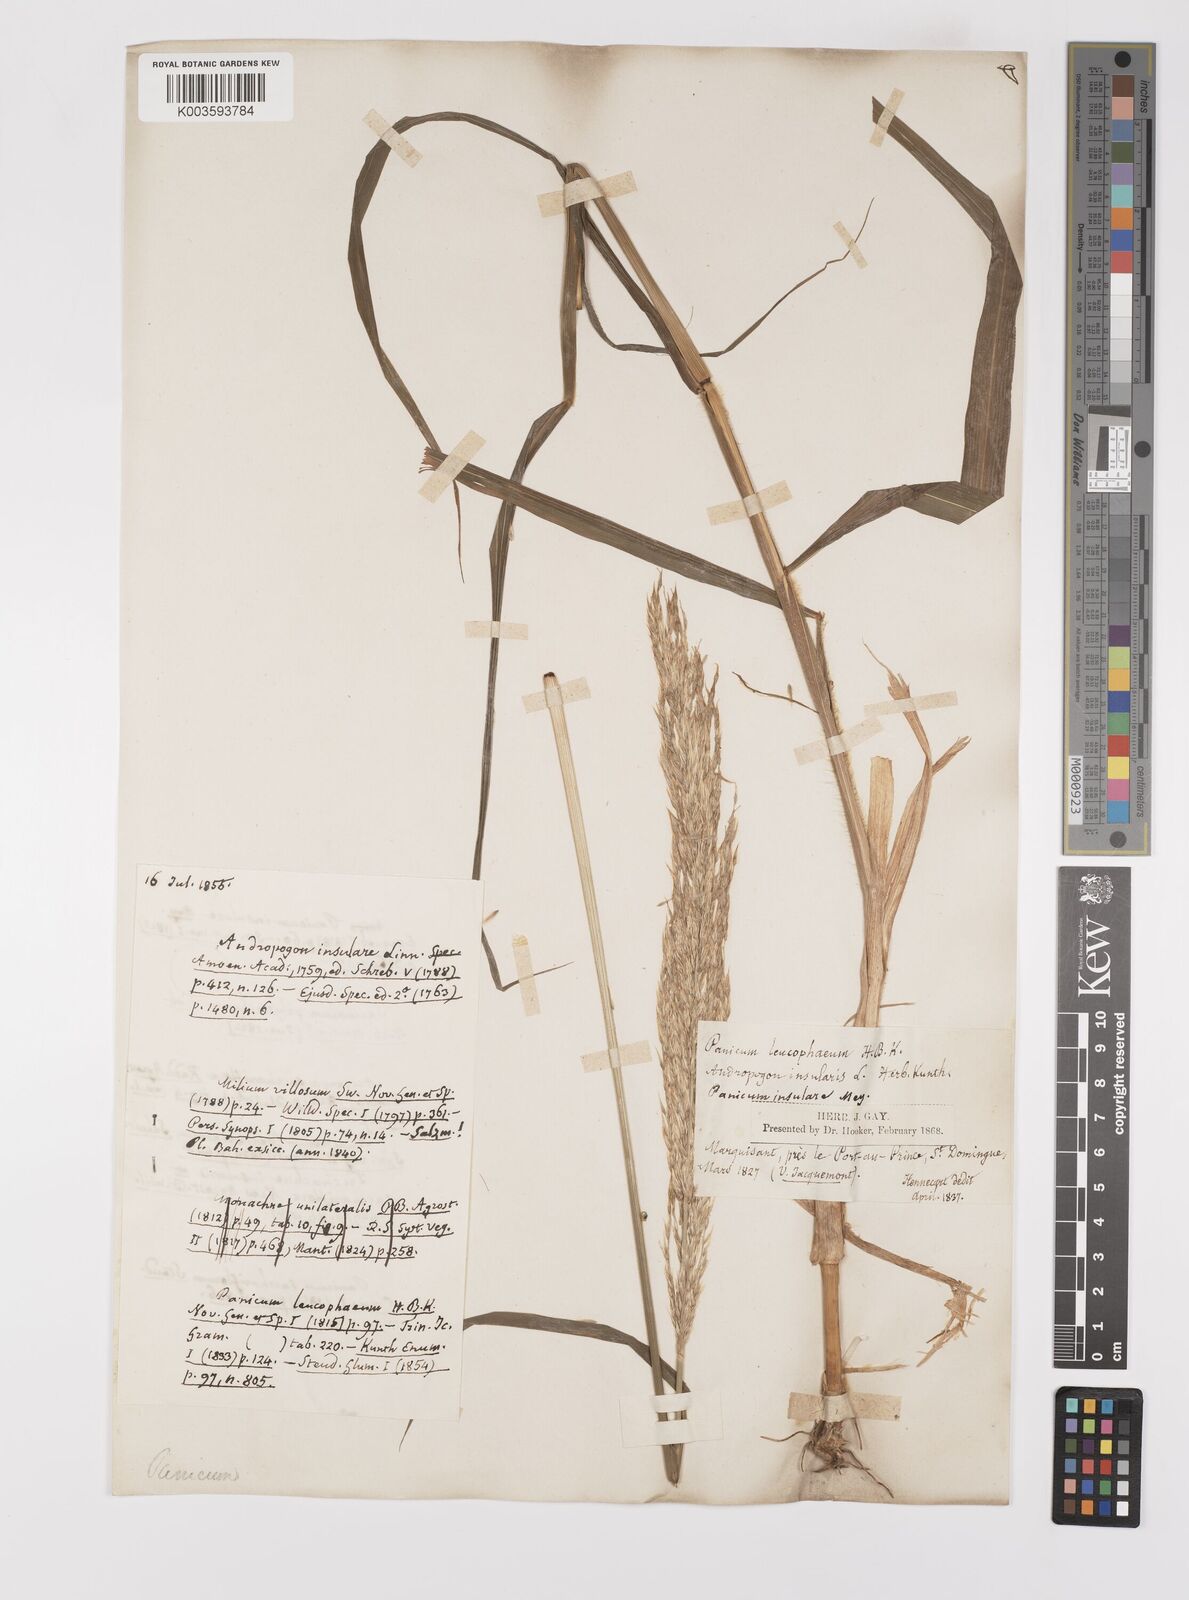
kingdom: Plantae
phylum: Tracheophyta
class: Liliopsida
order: Poales
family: Poaceae
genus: Digitaria
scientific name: Digitaria insularis
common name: Sourgrass
